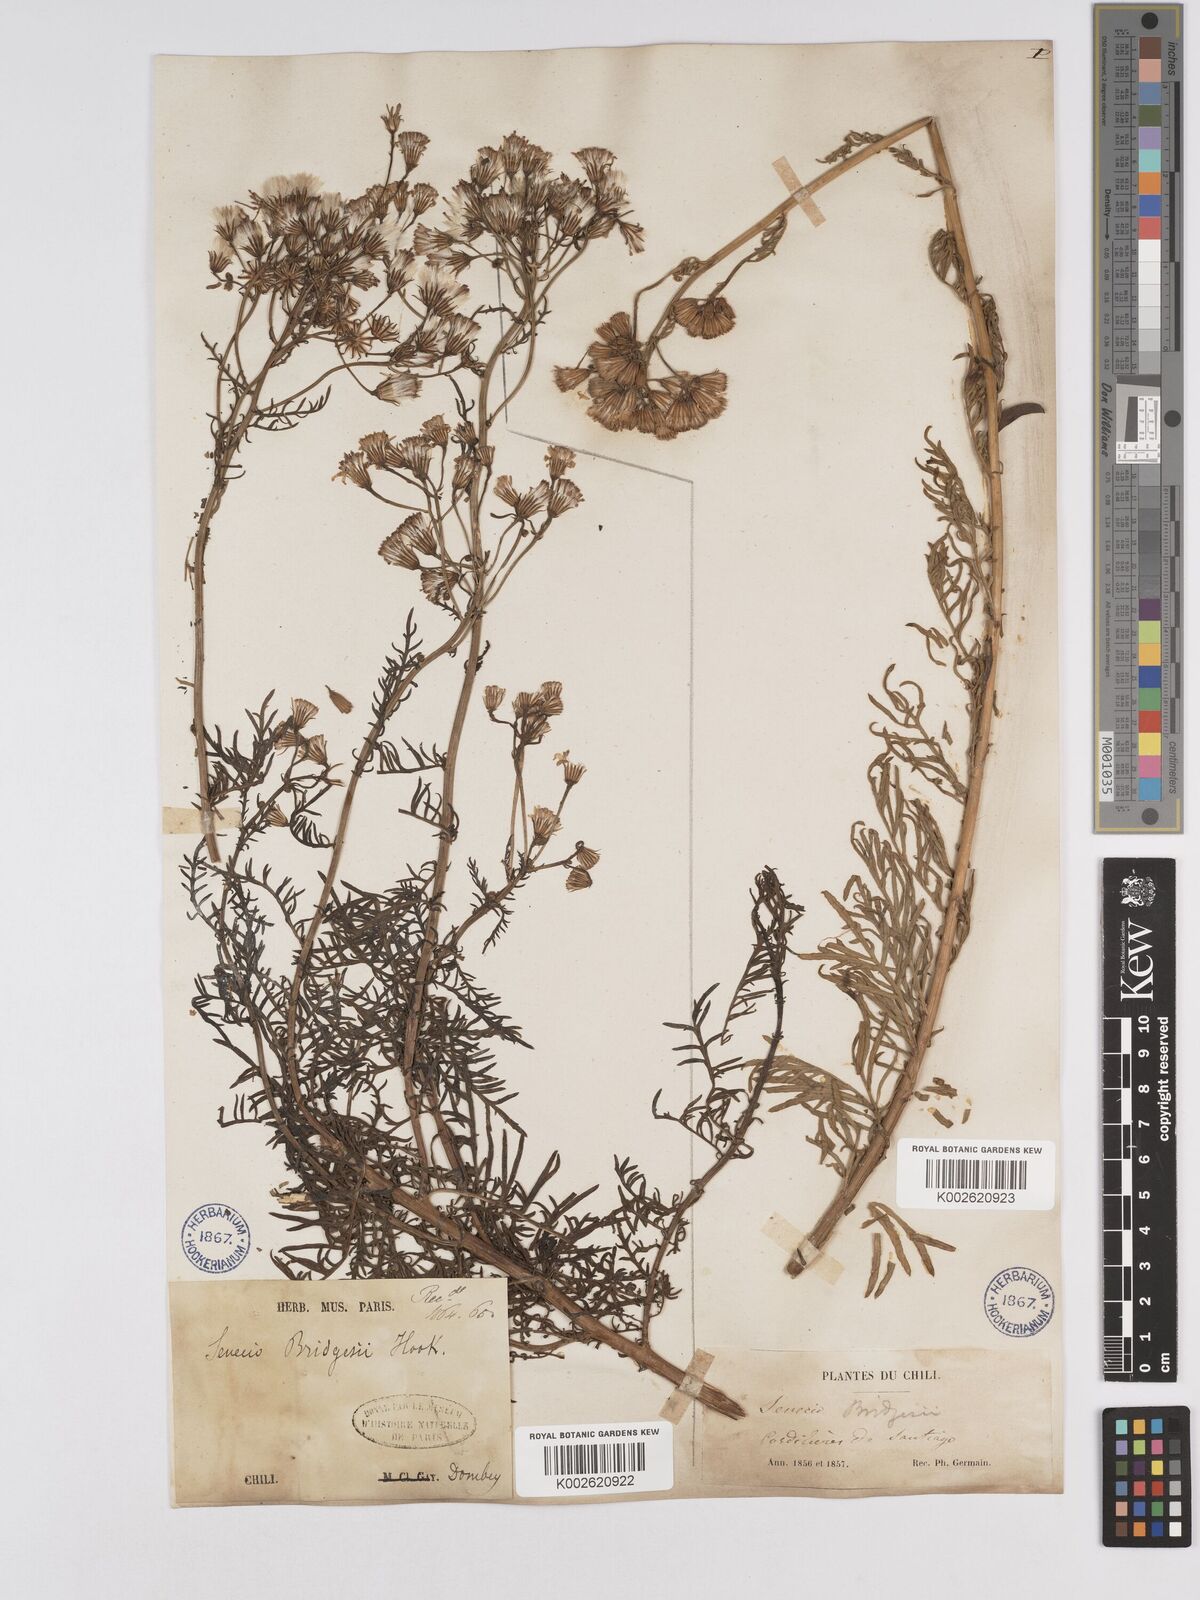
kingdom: Plantae
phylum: Tracheophyta
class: Magnoliopsida
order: Asterales
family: Asteraceae
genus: Senecio
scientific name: Senecio bridgesii
